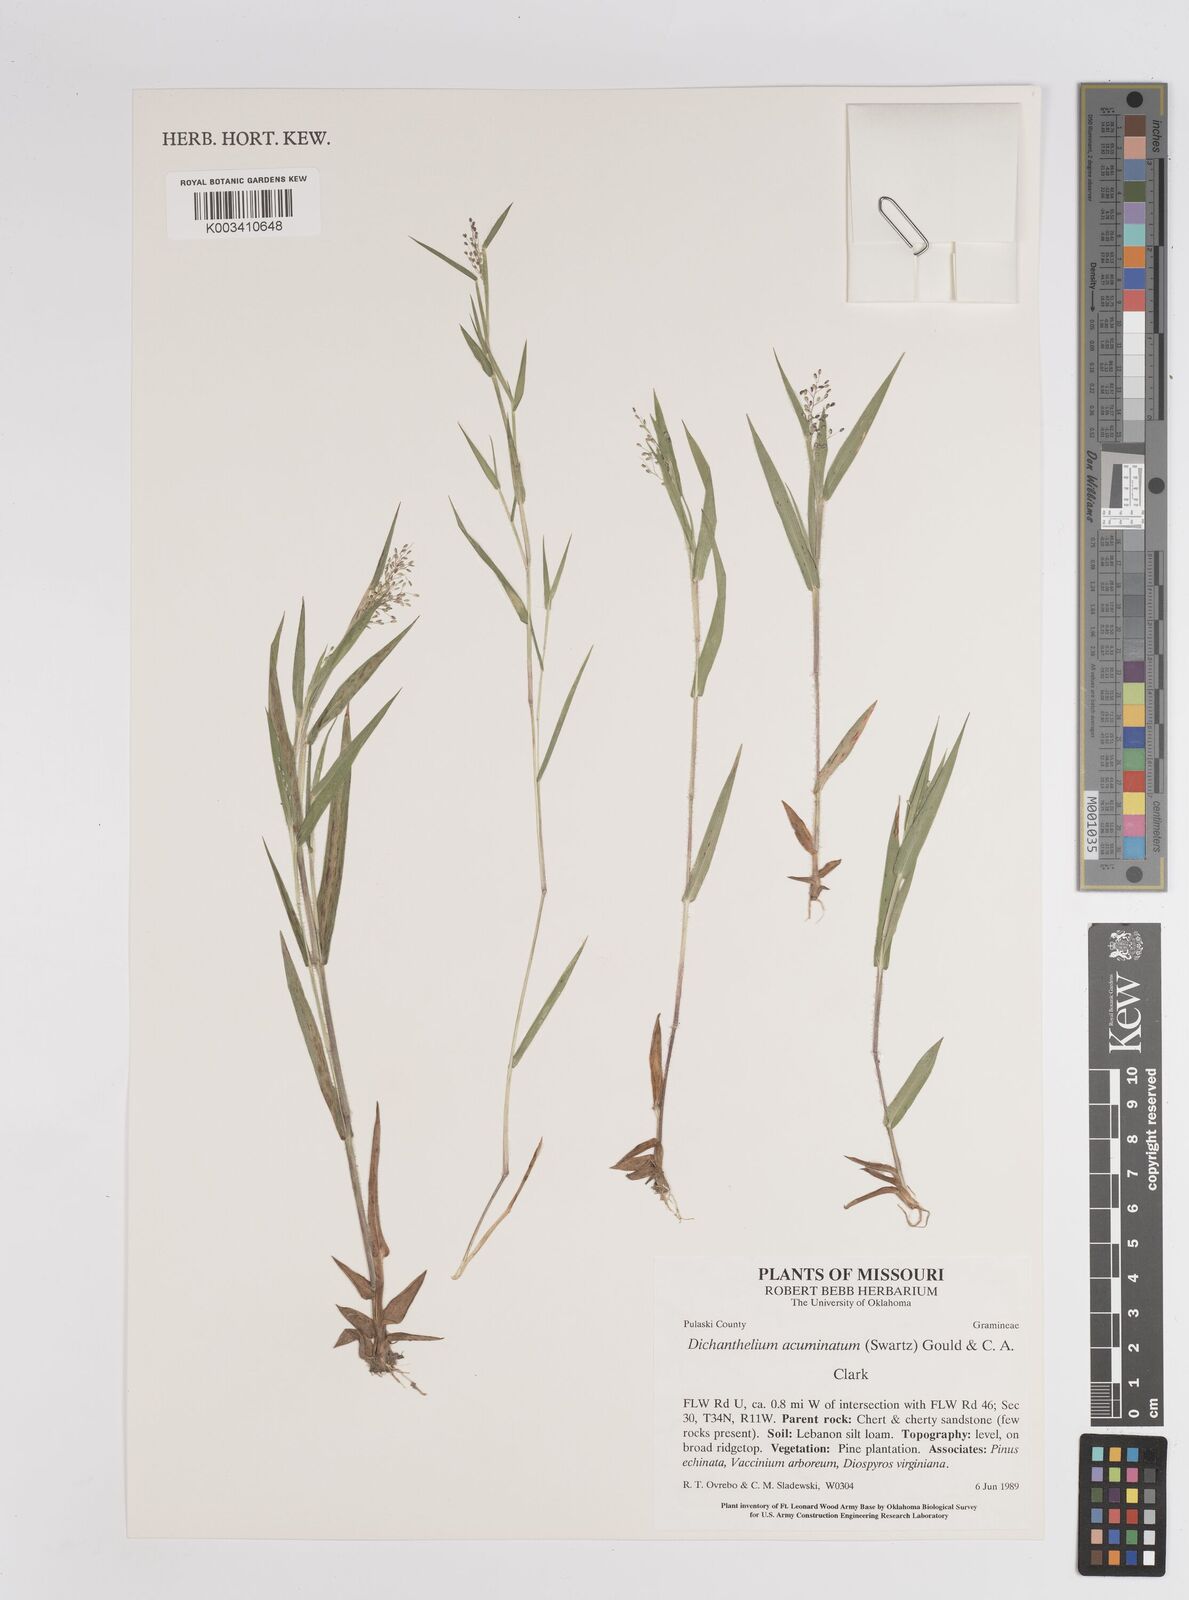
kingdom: Plantae
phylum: Tracheophyta
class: Liliopsida
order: Poales
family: Poaceae
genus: Dichanthelium
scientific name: Dichanthelium implicatum
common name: Slender-stemmed panicgrass
